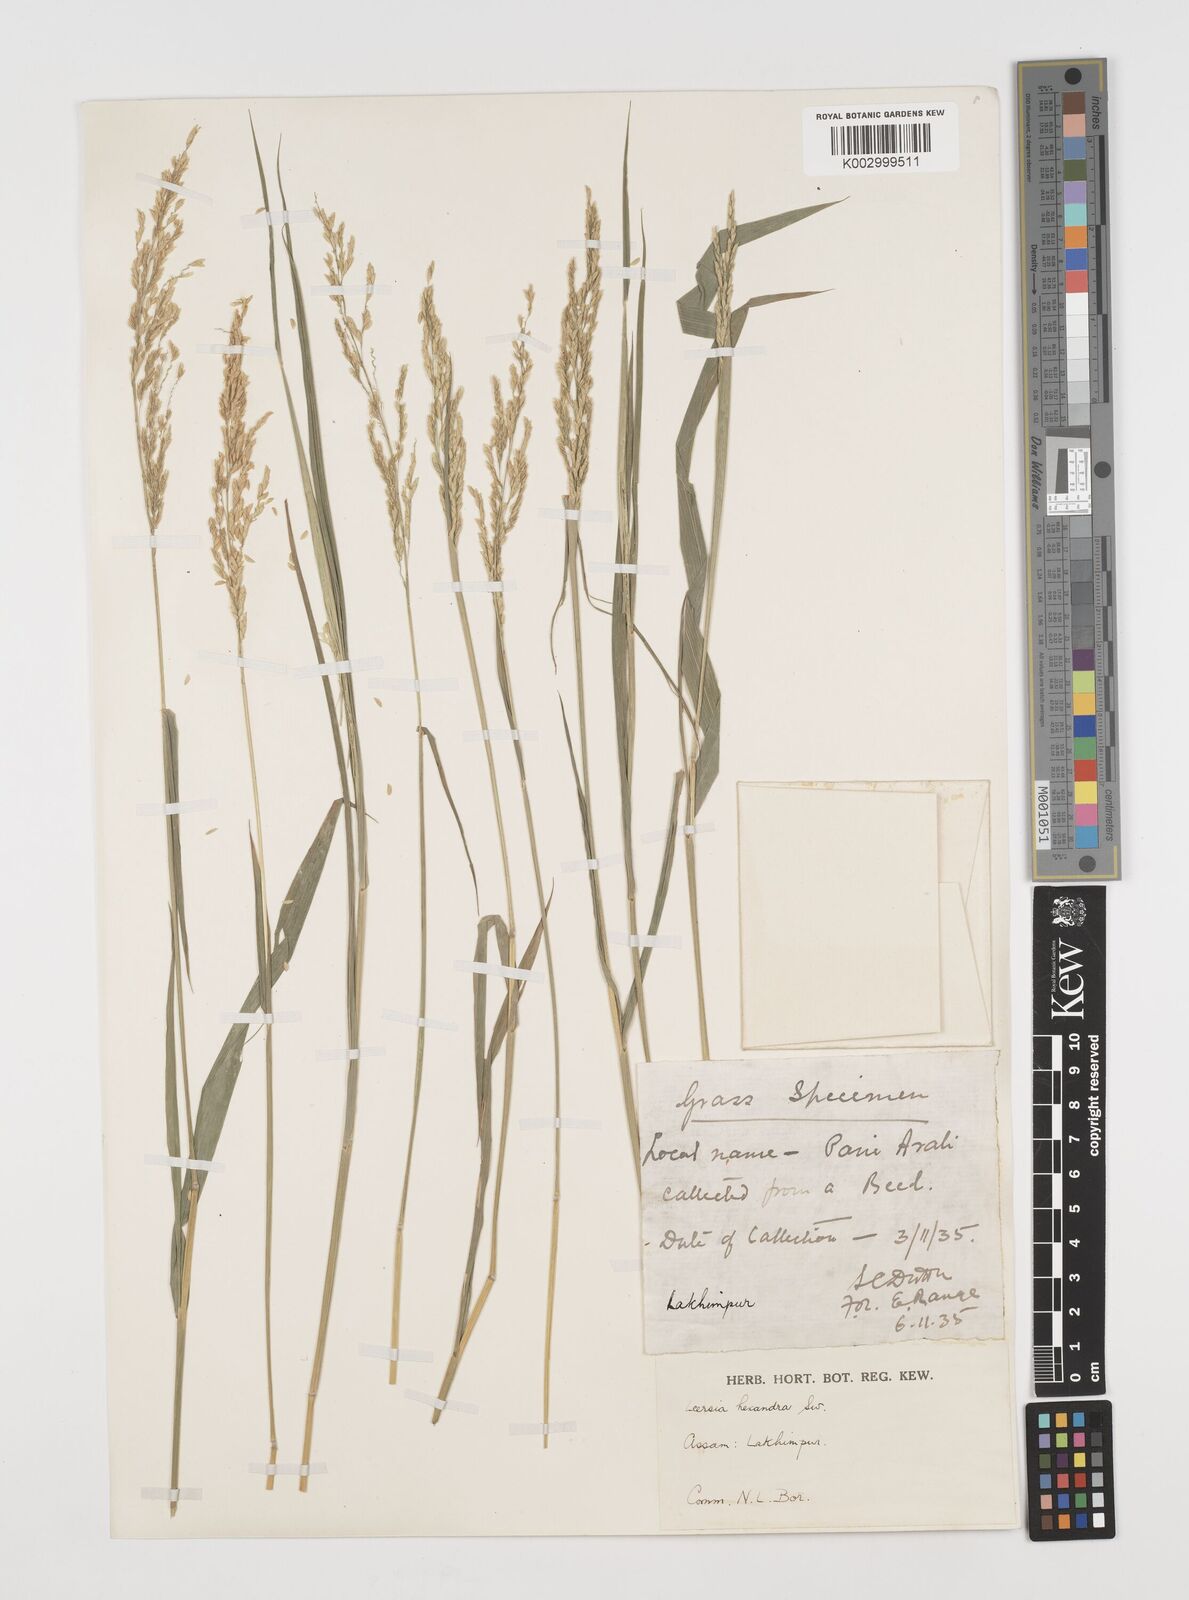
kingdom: Plantae
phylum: Tracheophyta
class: Liliopsida
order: Poales
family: Poaceae
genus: Leersia
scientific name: Leersia hexandra
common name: Southern cut grass
